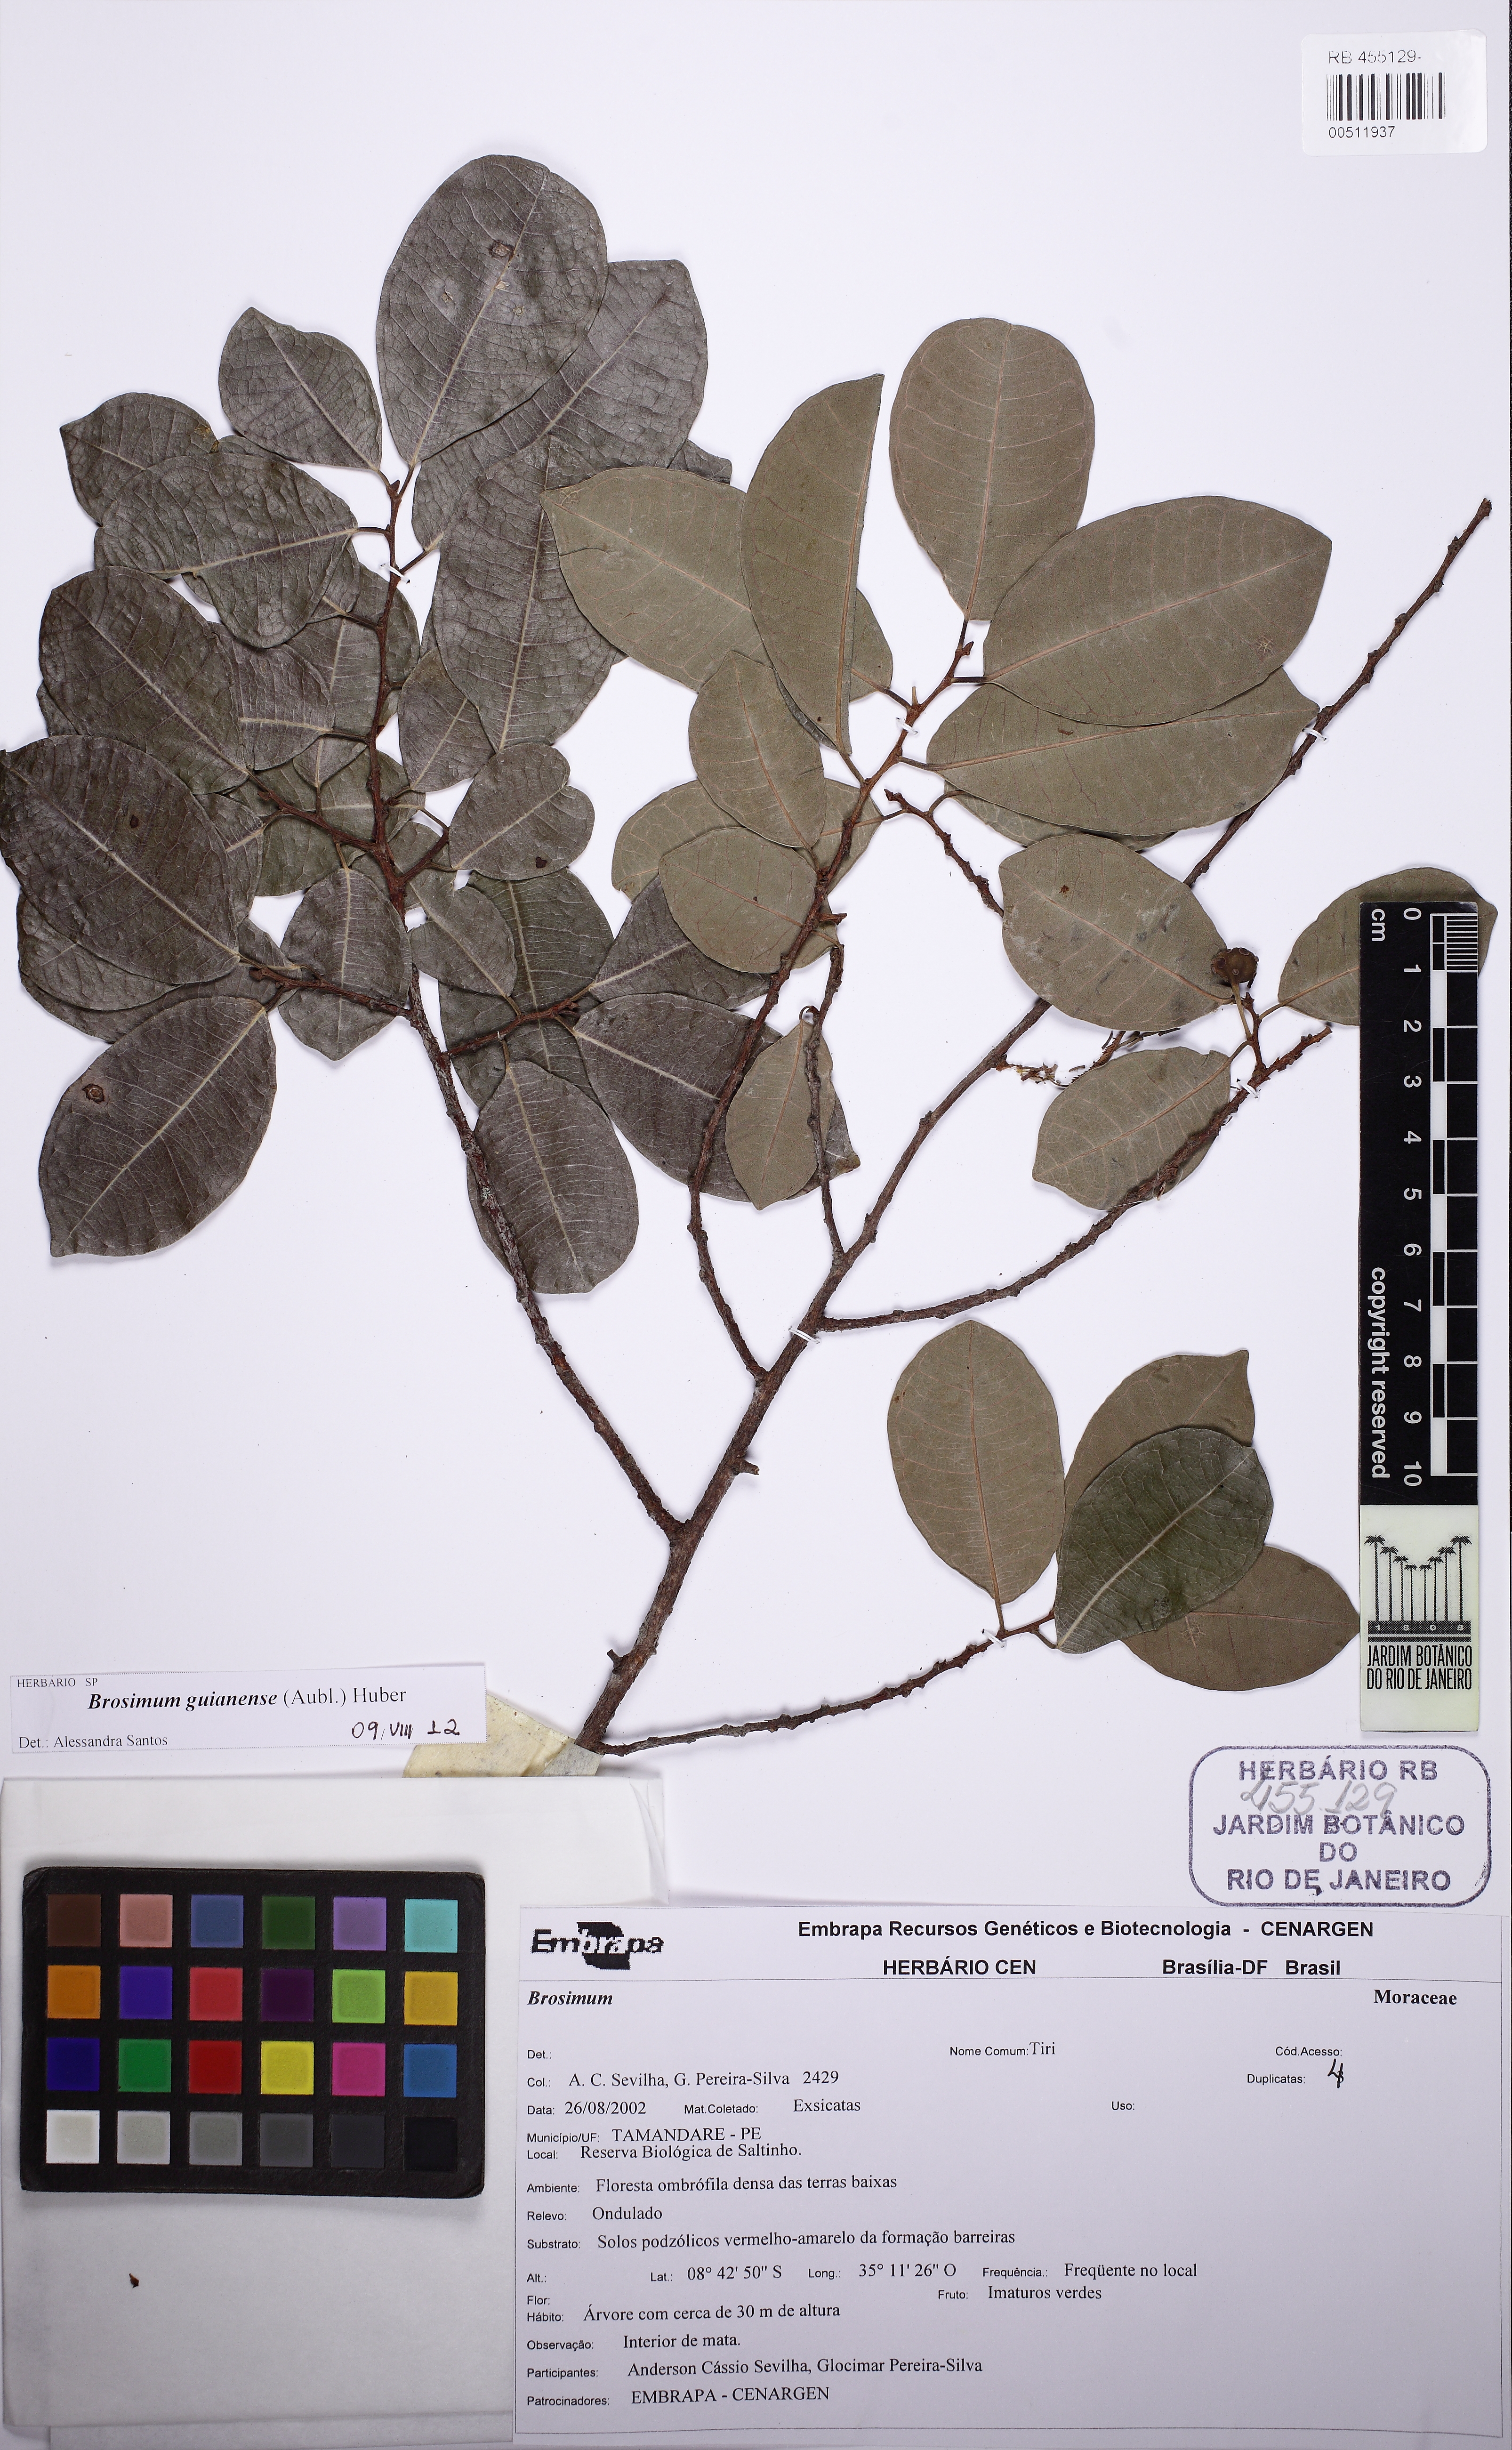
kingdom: Plantae
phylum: Tracheophyta
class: Magnoliopsida
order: Rosales
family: Moraceae
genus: Brosimum
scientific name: Brosimum guianense
